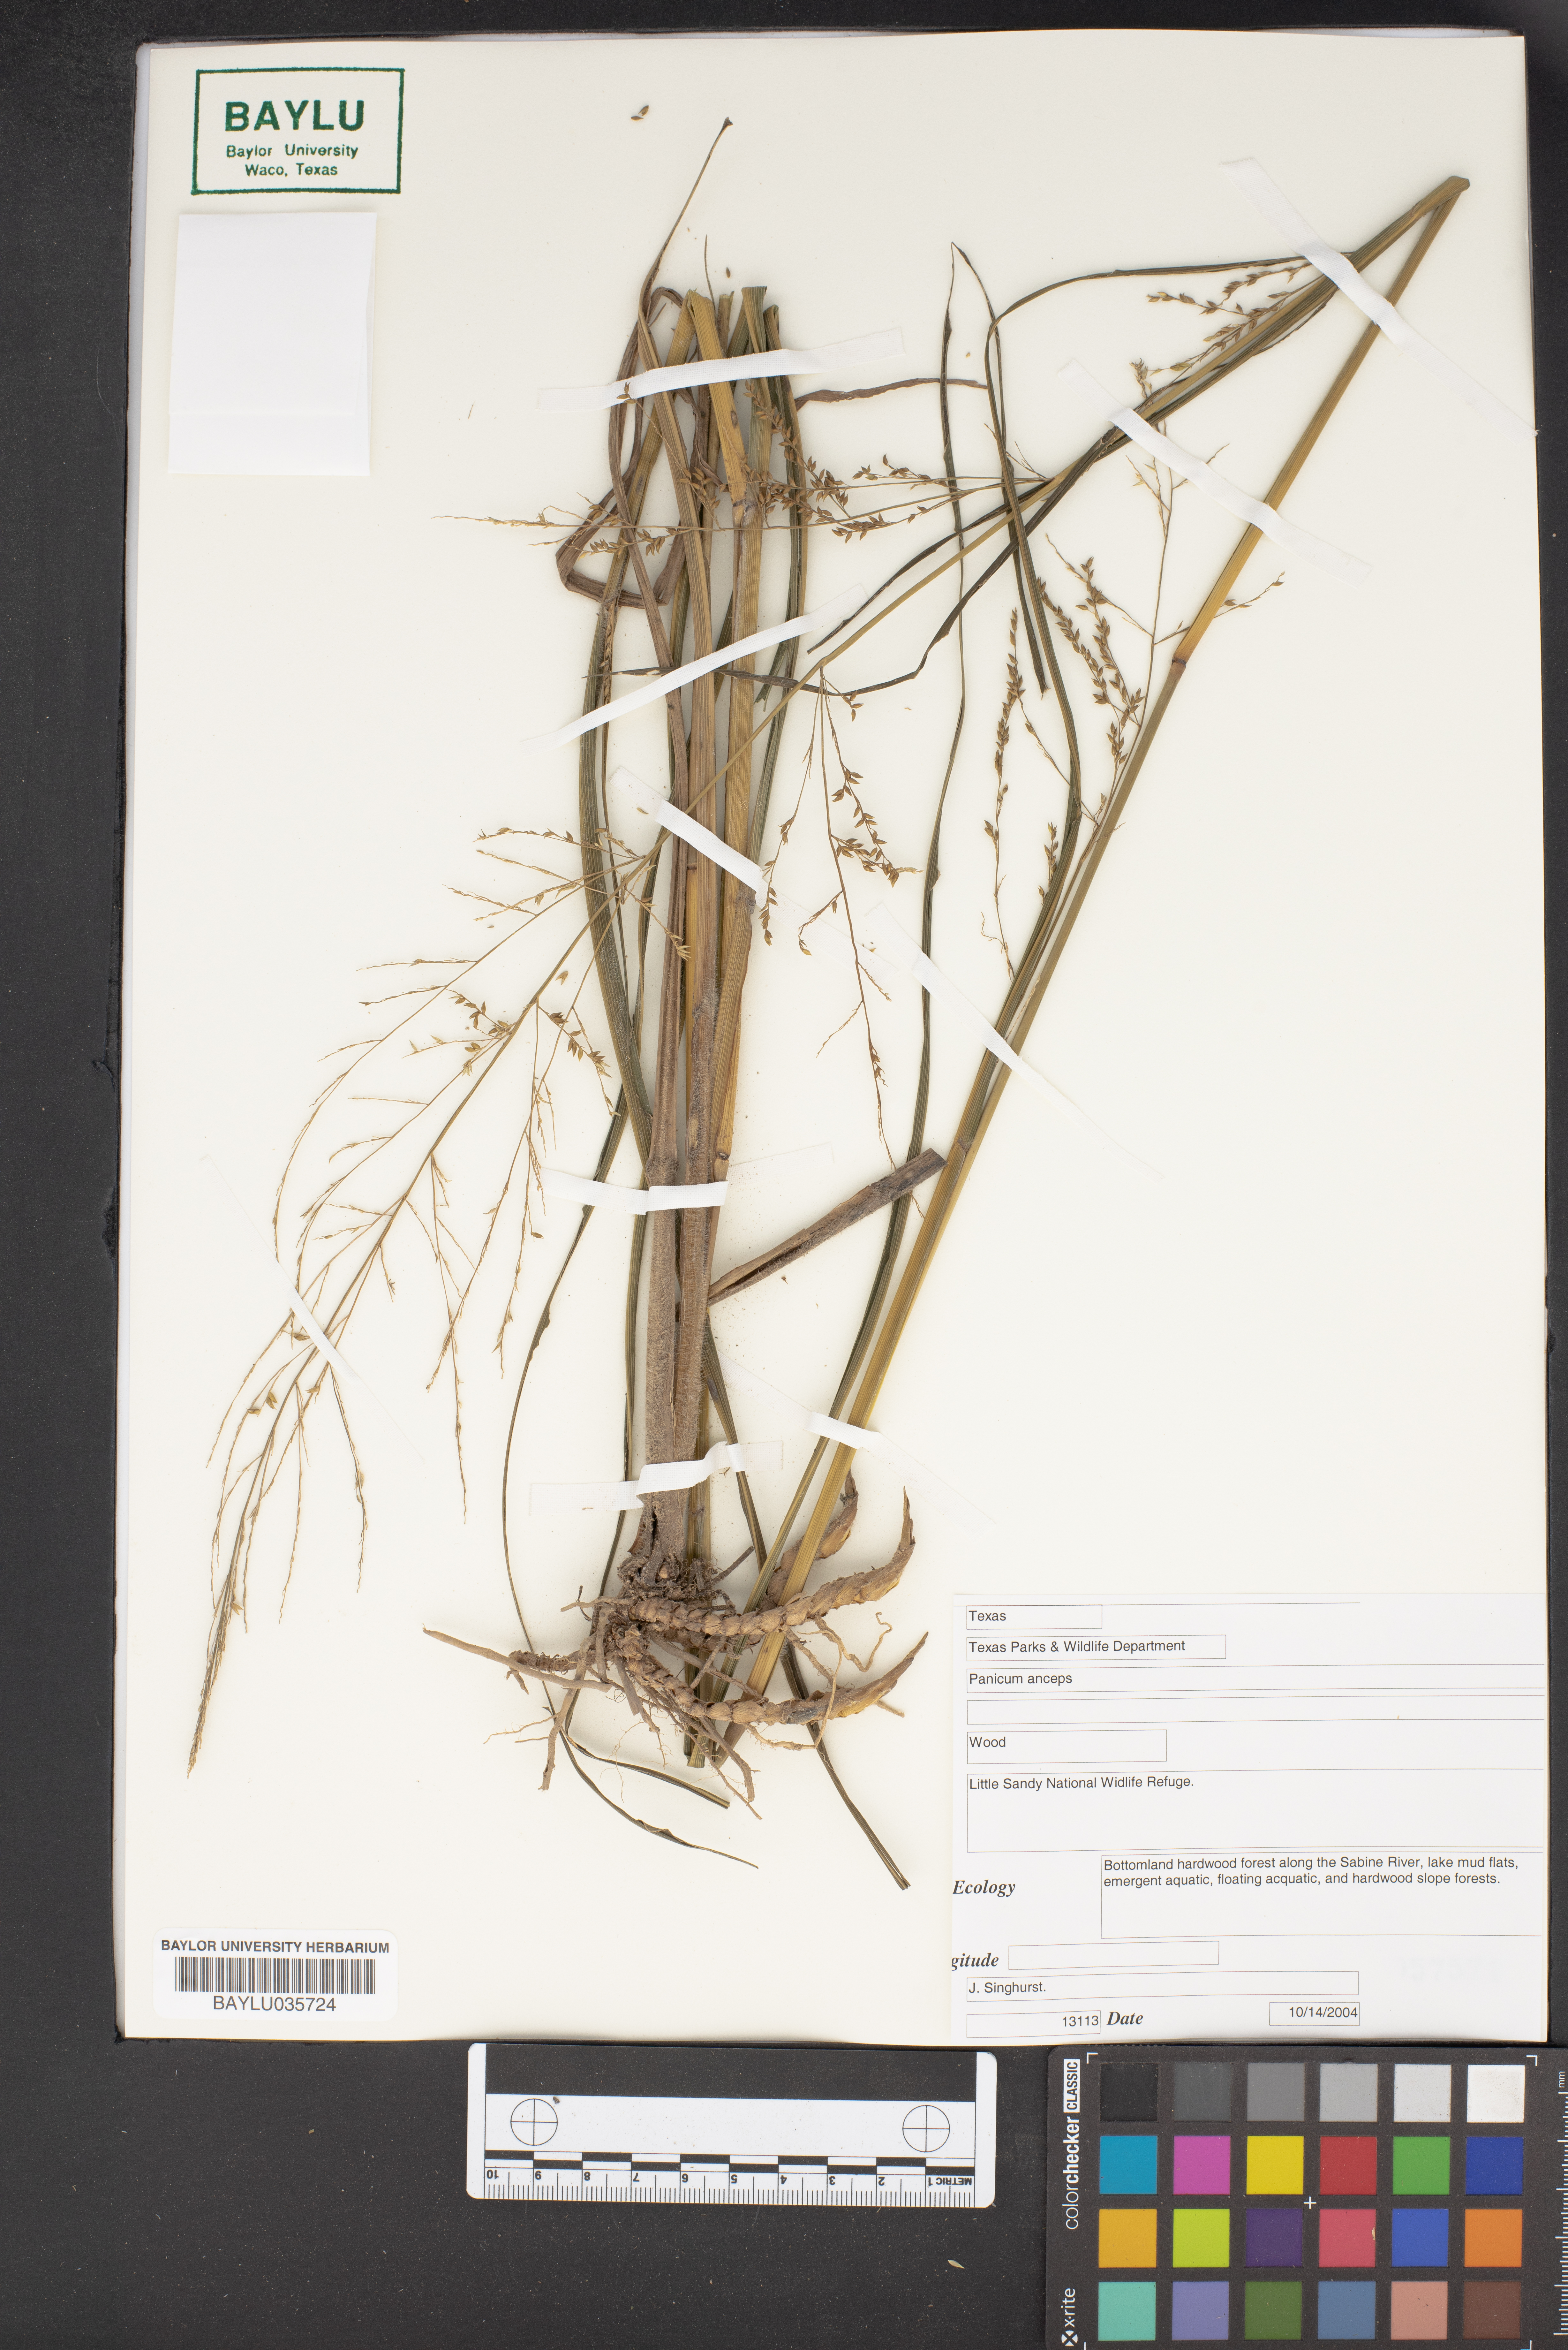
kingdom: Plantae
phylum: Tracheophyta
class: Liliopsida
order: Poales
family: Poaceae
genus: Coleataenia
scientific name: Coleataenia anceps
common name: Beaked panic grass
